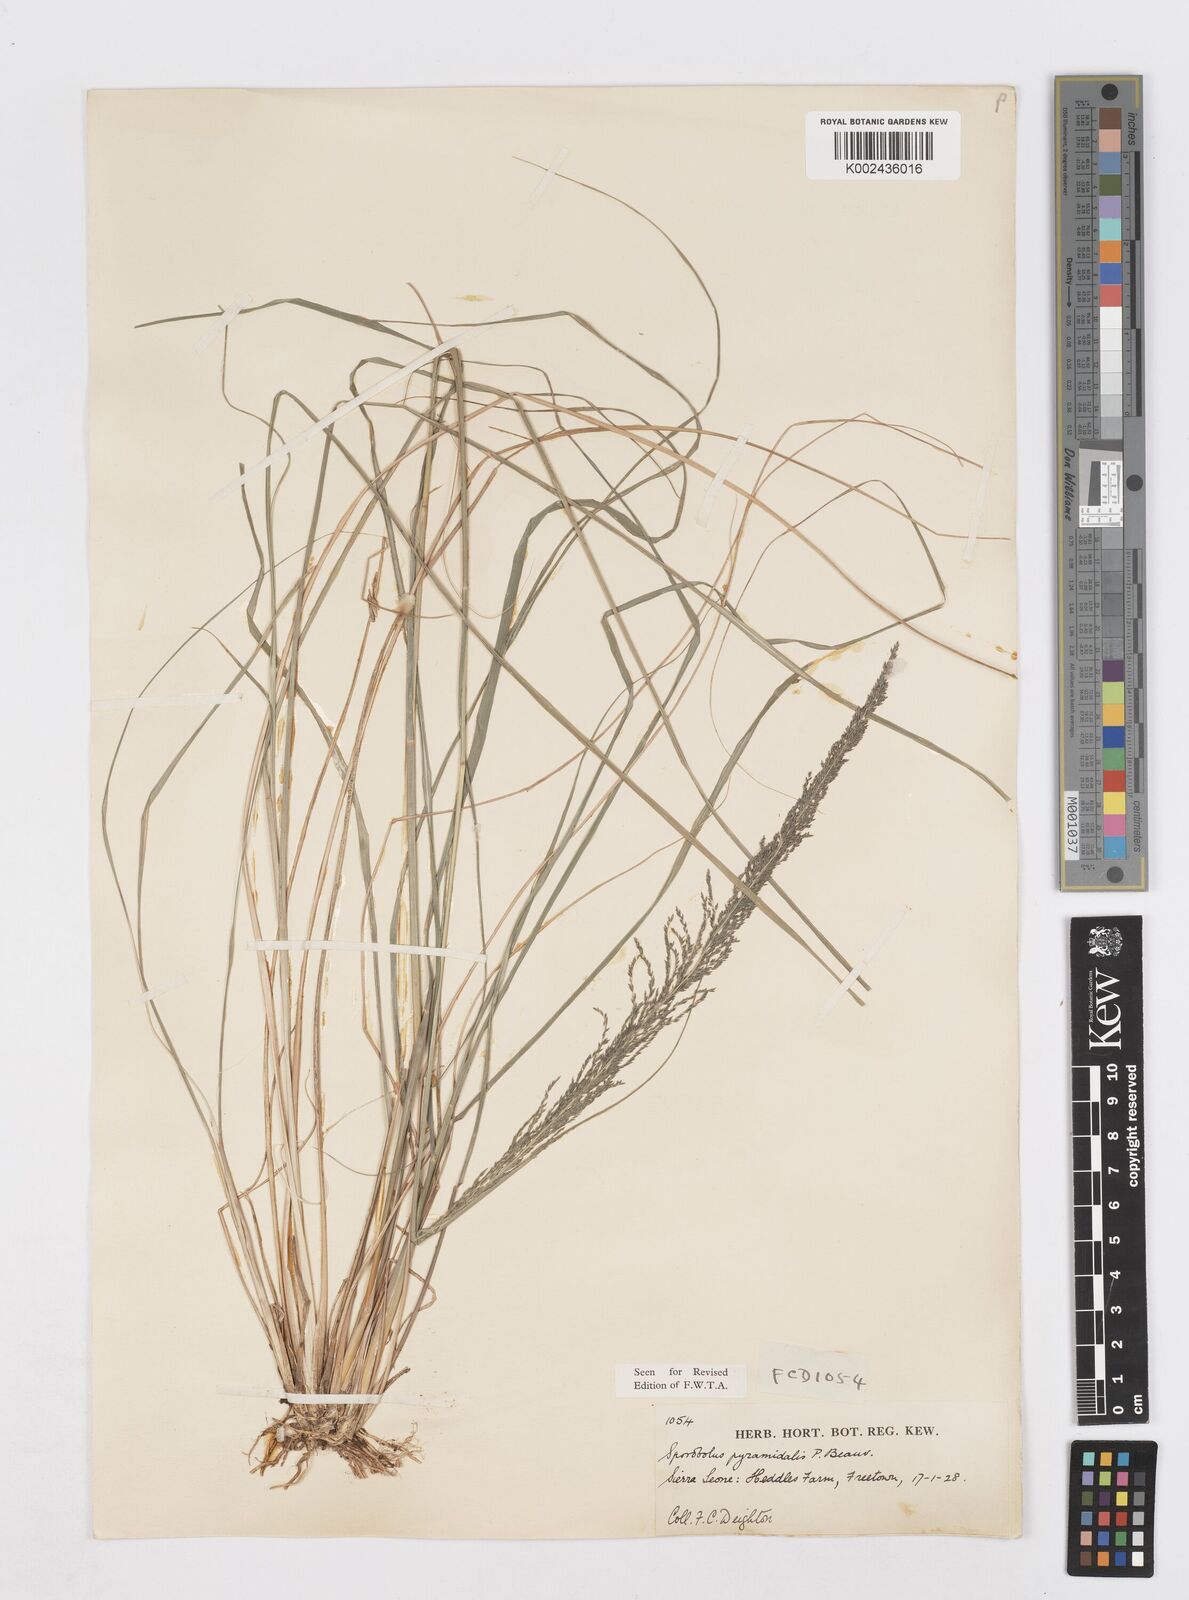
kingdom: Plantae
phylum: Tracheophyta
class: Liliopsida
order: Poales
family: Poaceae
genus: Sporobolus
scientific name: Sporobolus pyramidalis
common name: West indian dropseed
